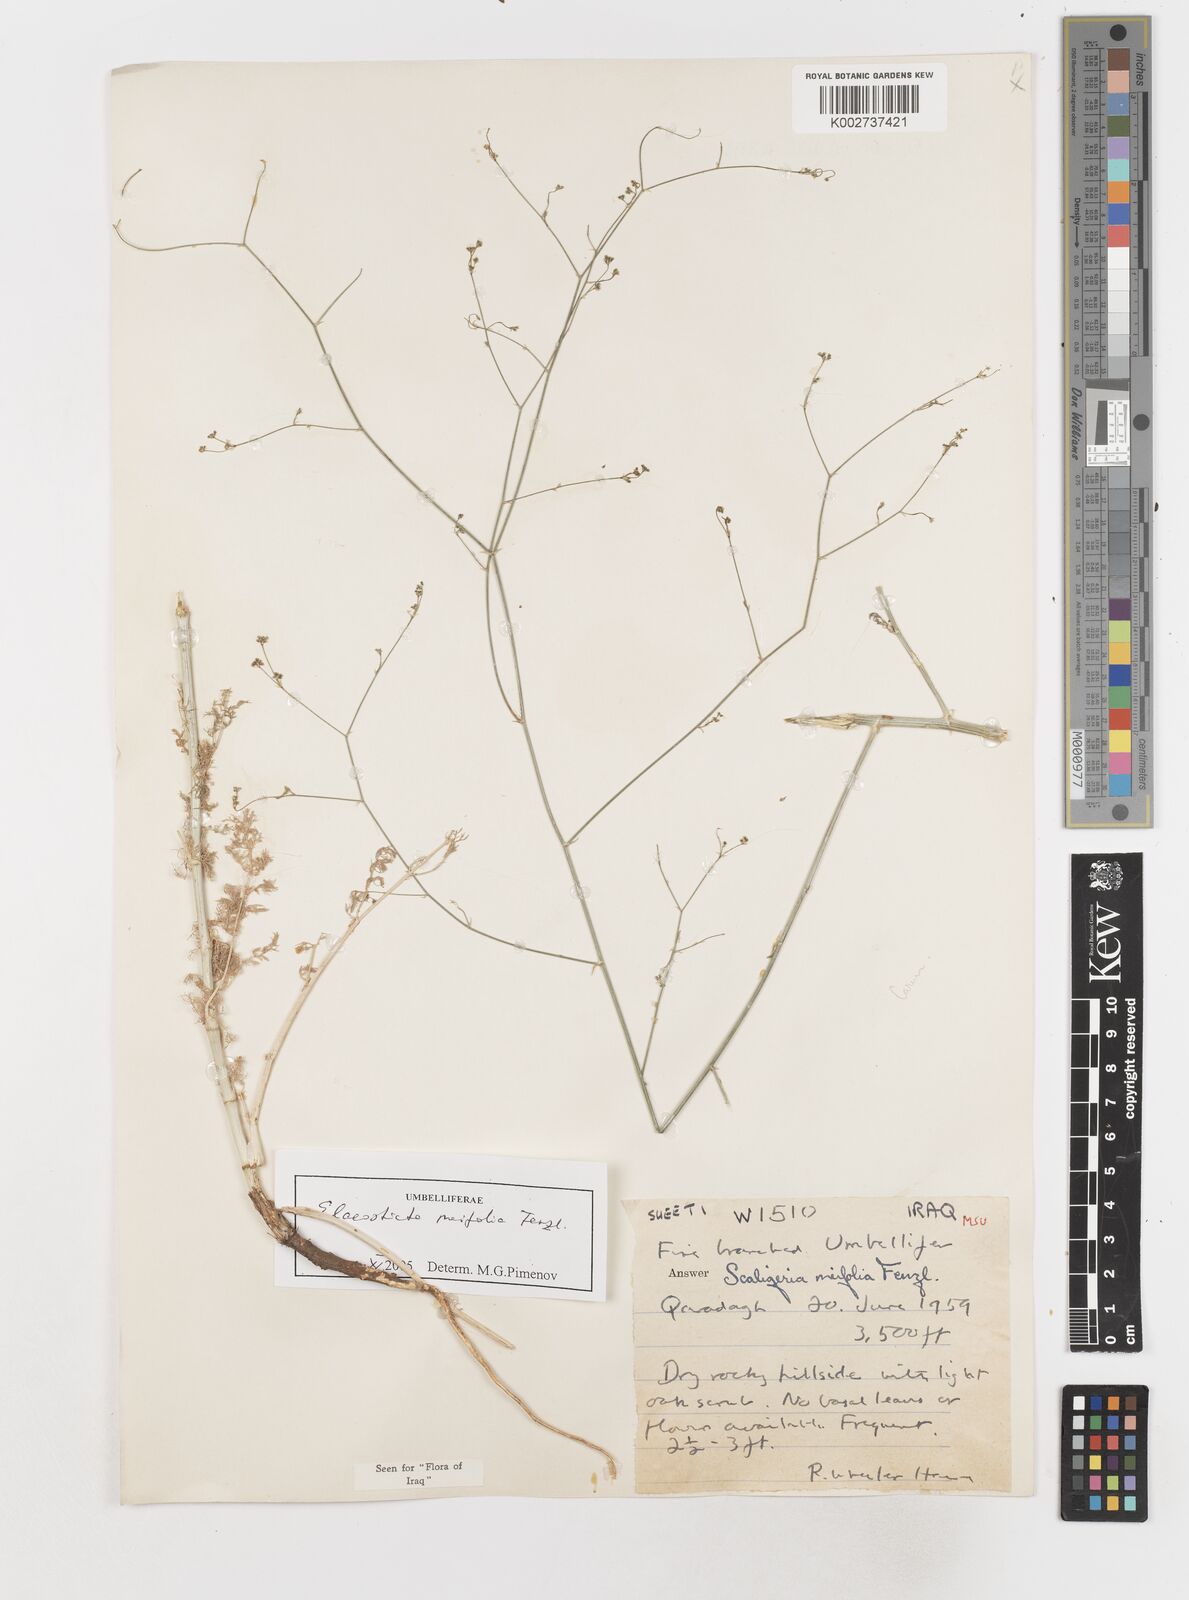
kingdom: Plantae
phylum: Tracheophyta
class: Magnoliopsida
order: Apiales
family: Apiaceae
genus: Elaeosticta
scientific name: Elaeosticta meifolia
